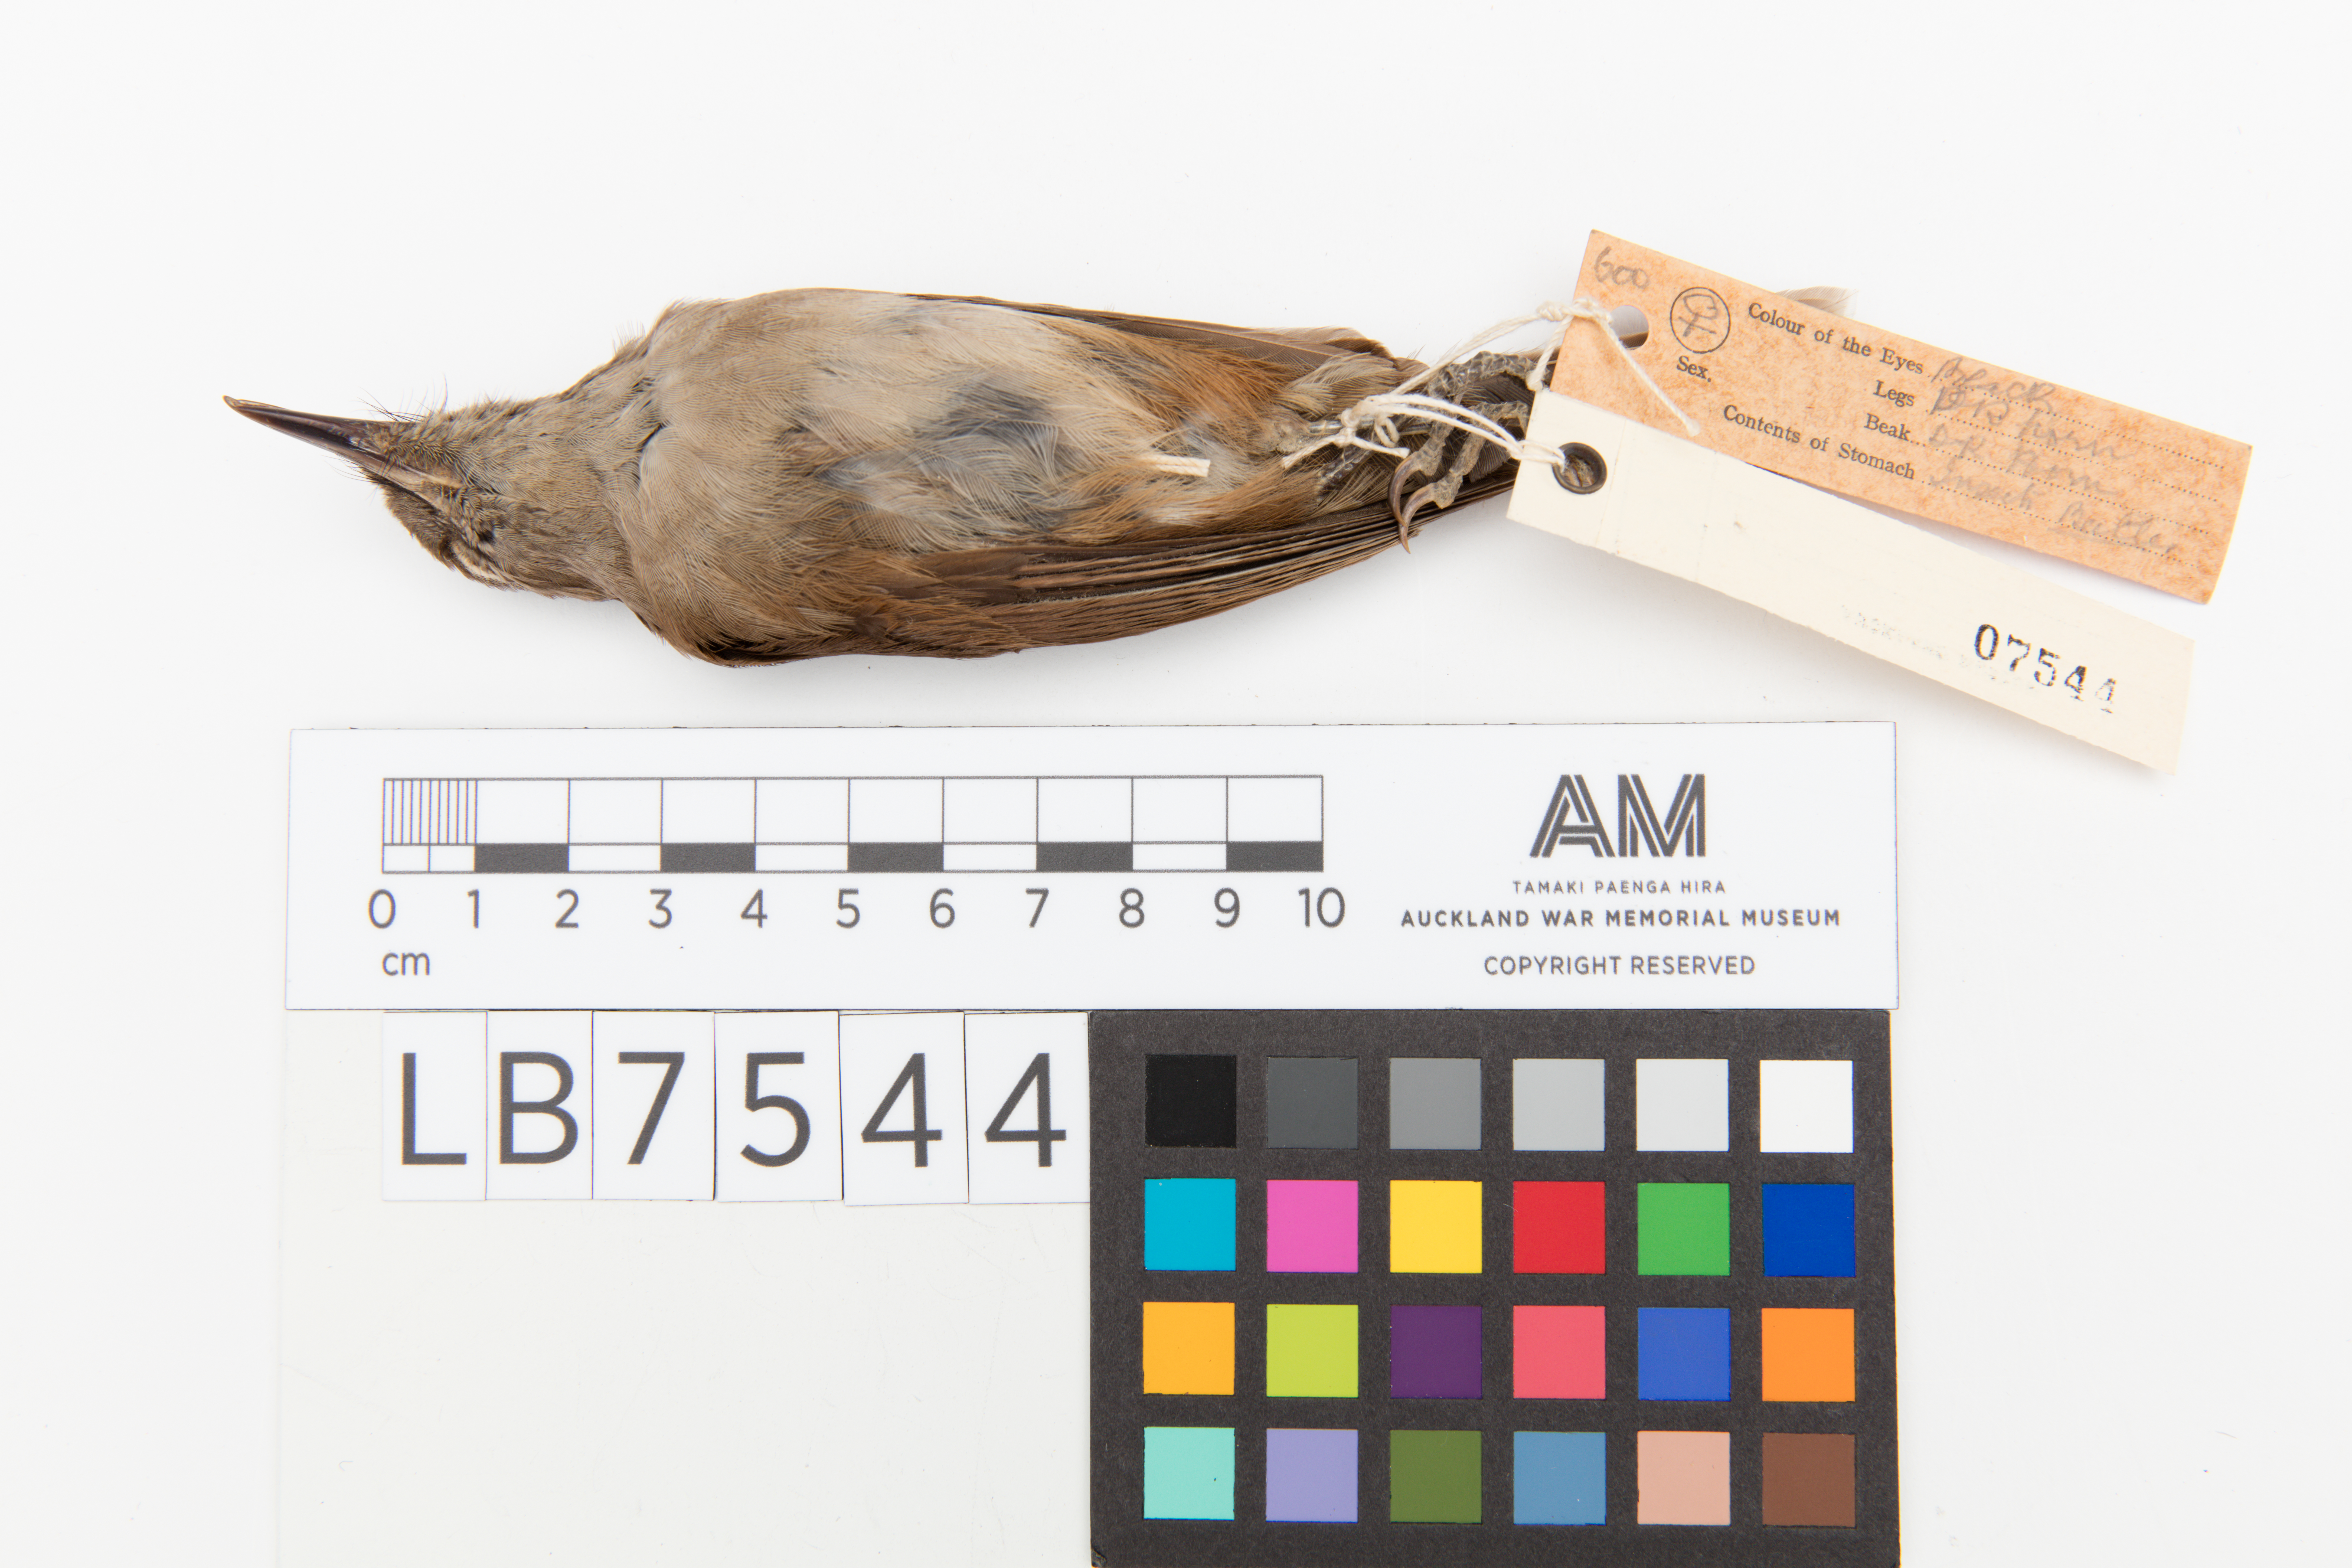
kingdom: Animalia
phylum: Chordata
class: Aves
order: Passeriformes
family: Monarchidae
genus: Clytorhynchus
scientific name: Clytorhynchus vitiensis
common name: Fiji shrikebill
